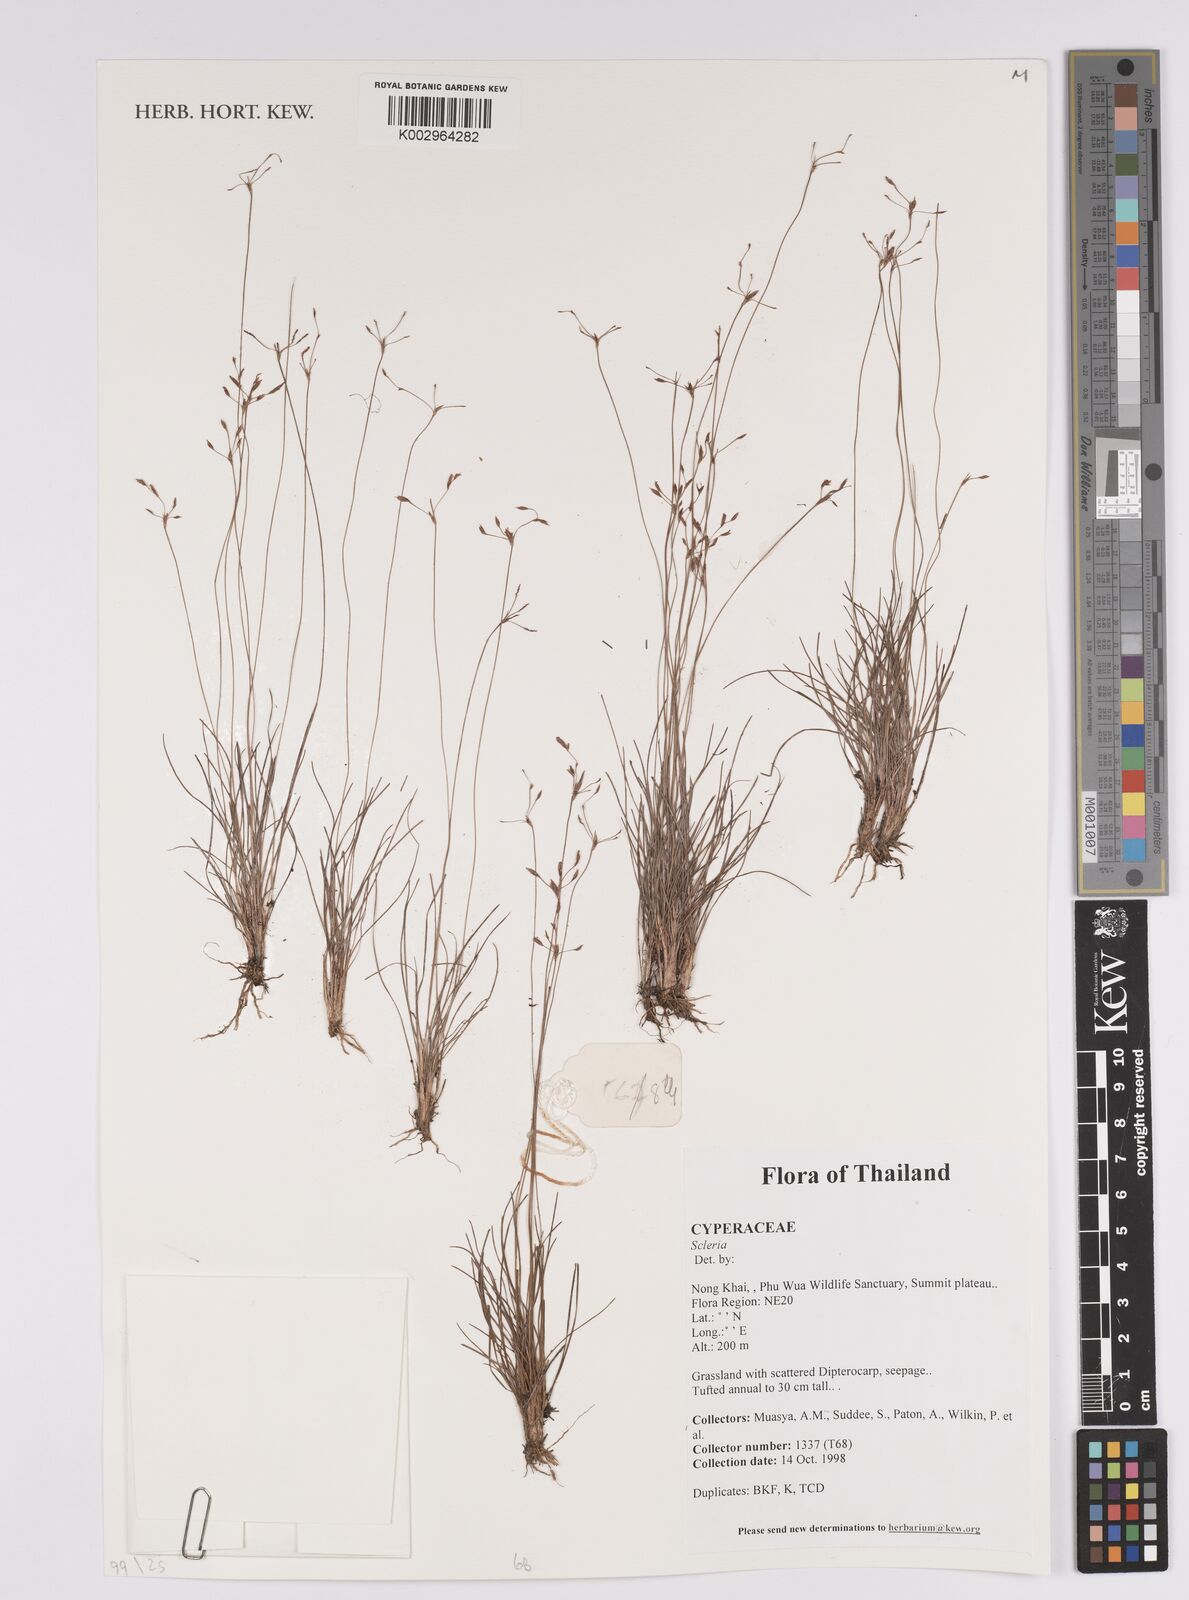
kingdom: Plantae
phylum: Tracheophyta
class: Liliopsida
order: Poales
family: Cyperaceae
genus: Scleria
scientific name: Scleria
